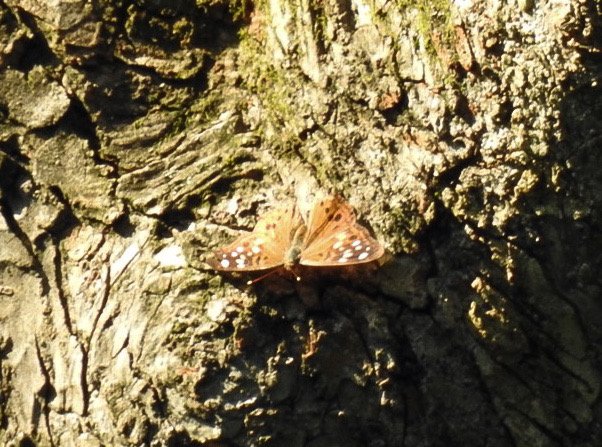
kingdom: Animalia
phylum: Arthropoda
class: Insecta
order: Lepidoptera
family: Nymphalidae
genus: Asterocampa
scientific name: Asterocampa celtis
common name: Hackberry Emperor
